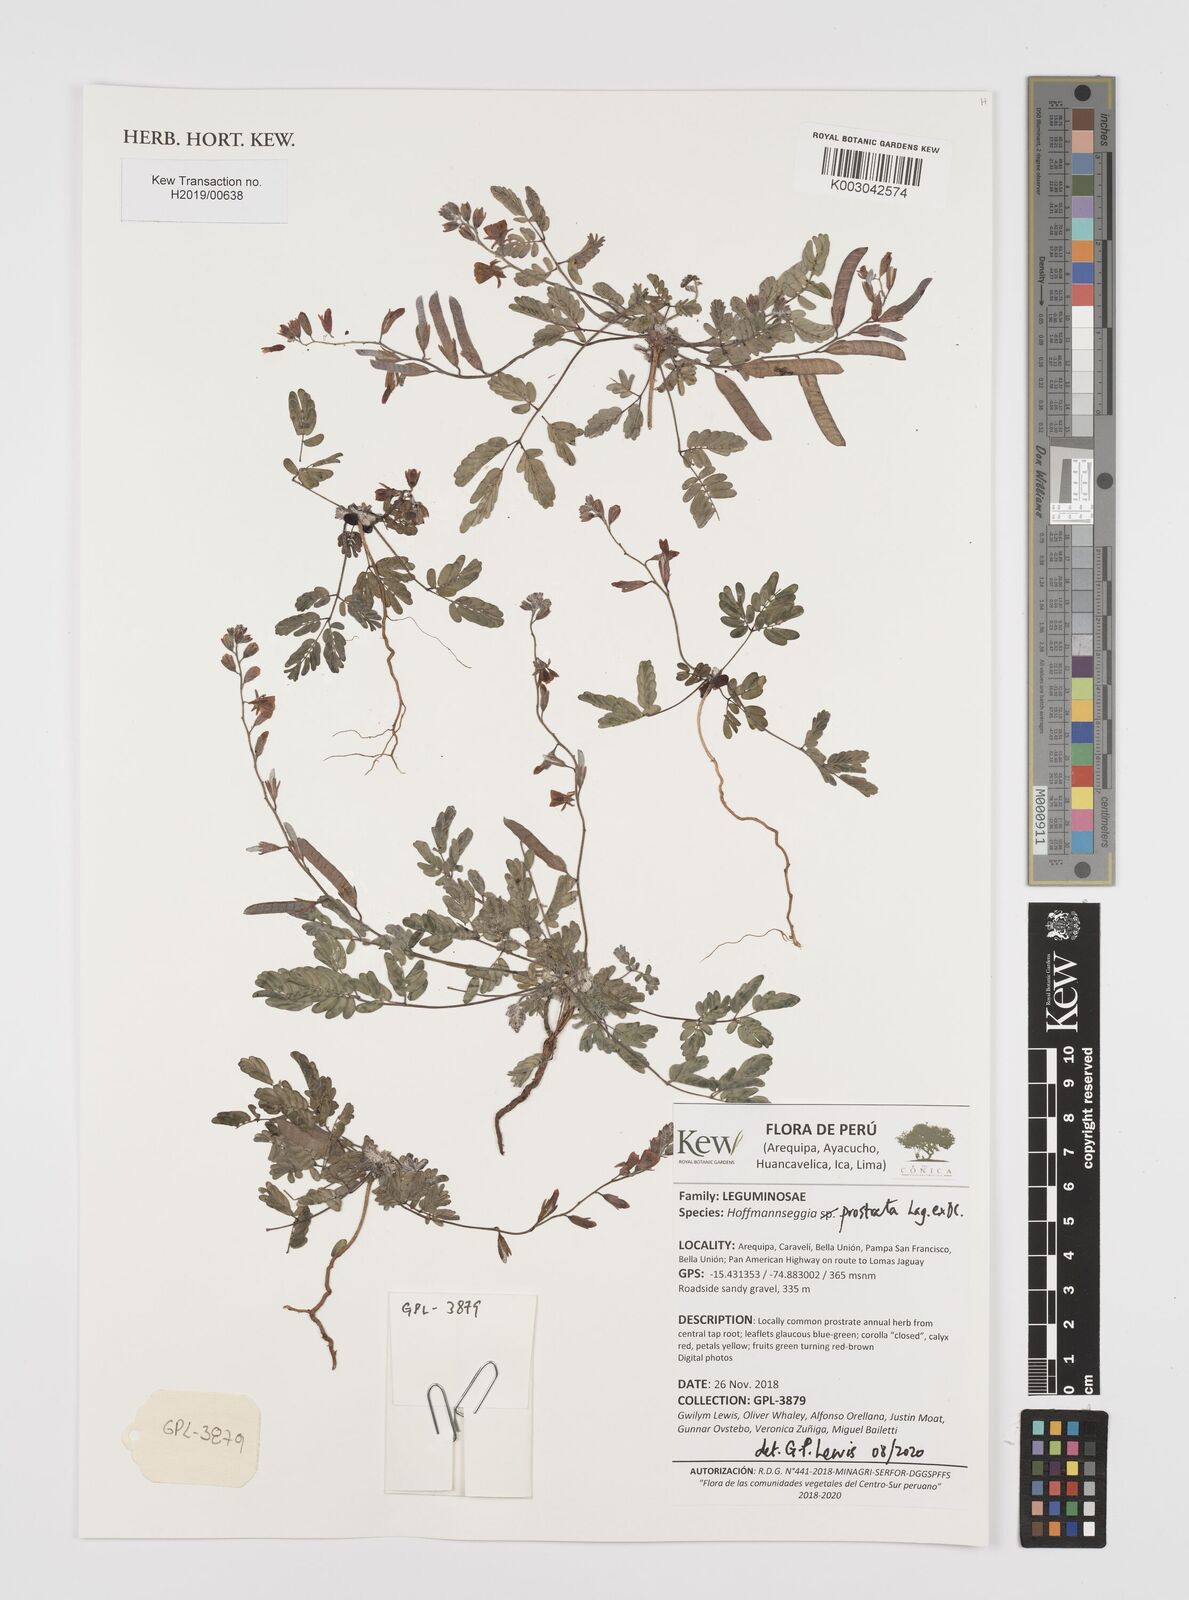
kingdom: Plantae
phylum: Tracheophyta
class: Magnoliopsida
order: Fabales
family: Fabaceae
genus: Hoffmannseggia
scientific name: Hoffmannseggia prostrata
